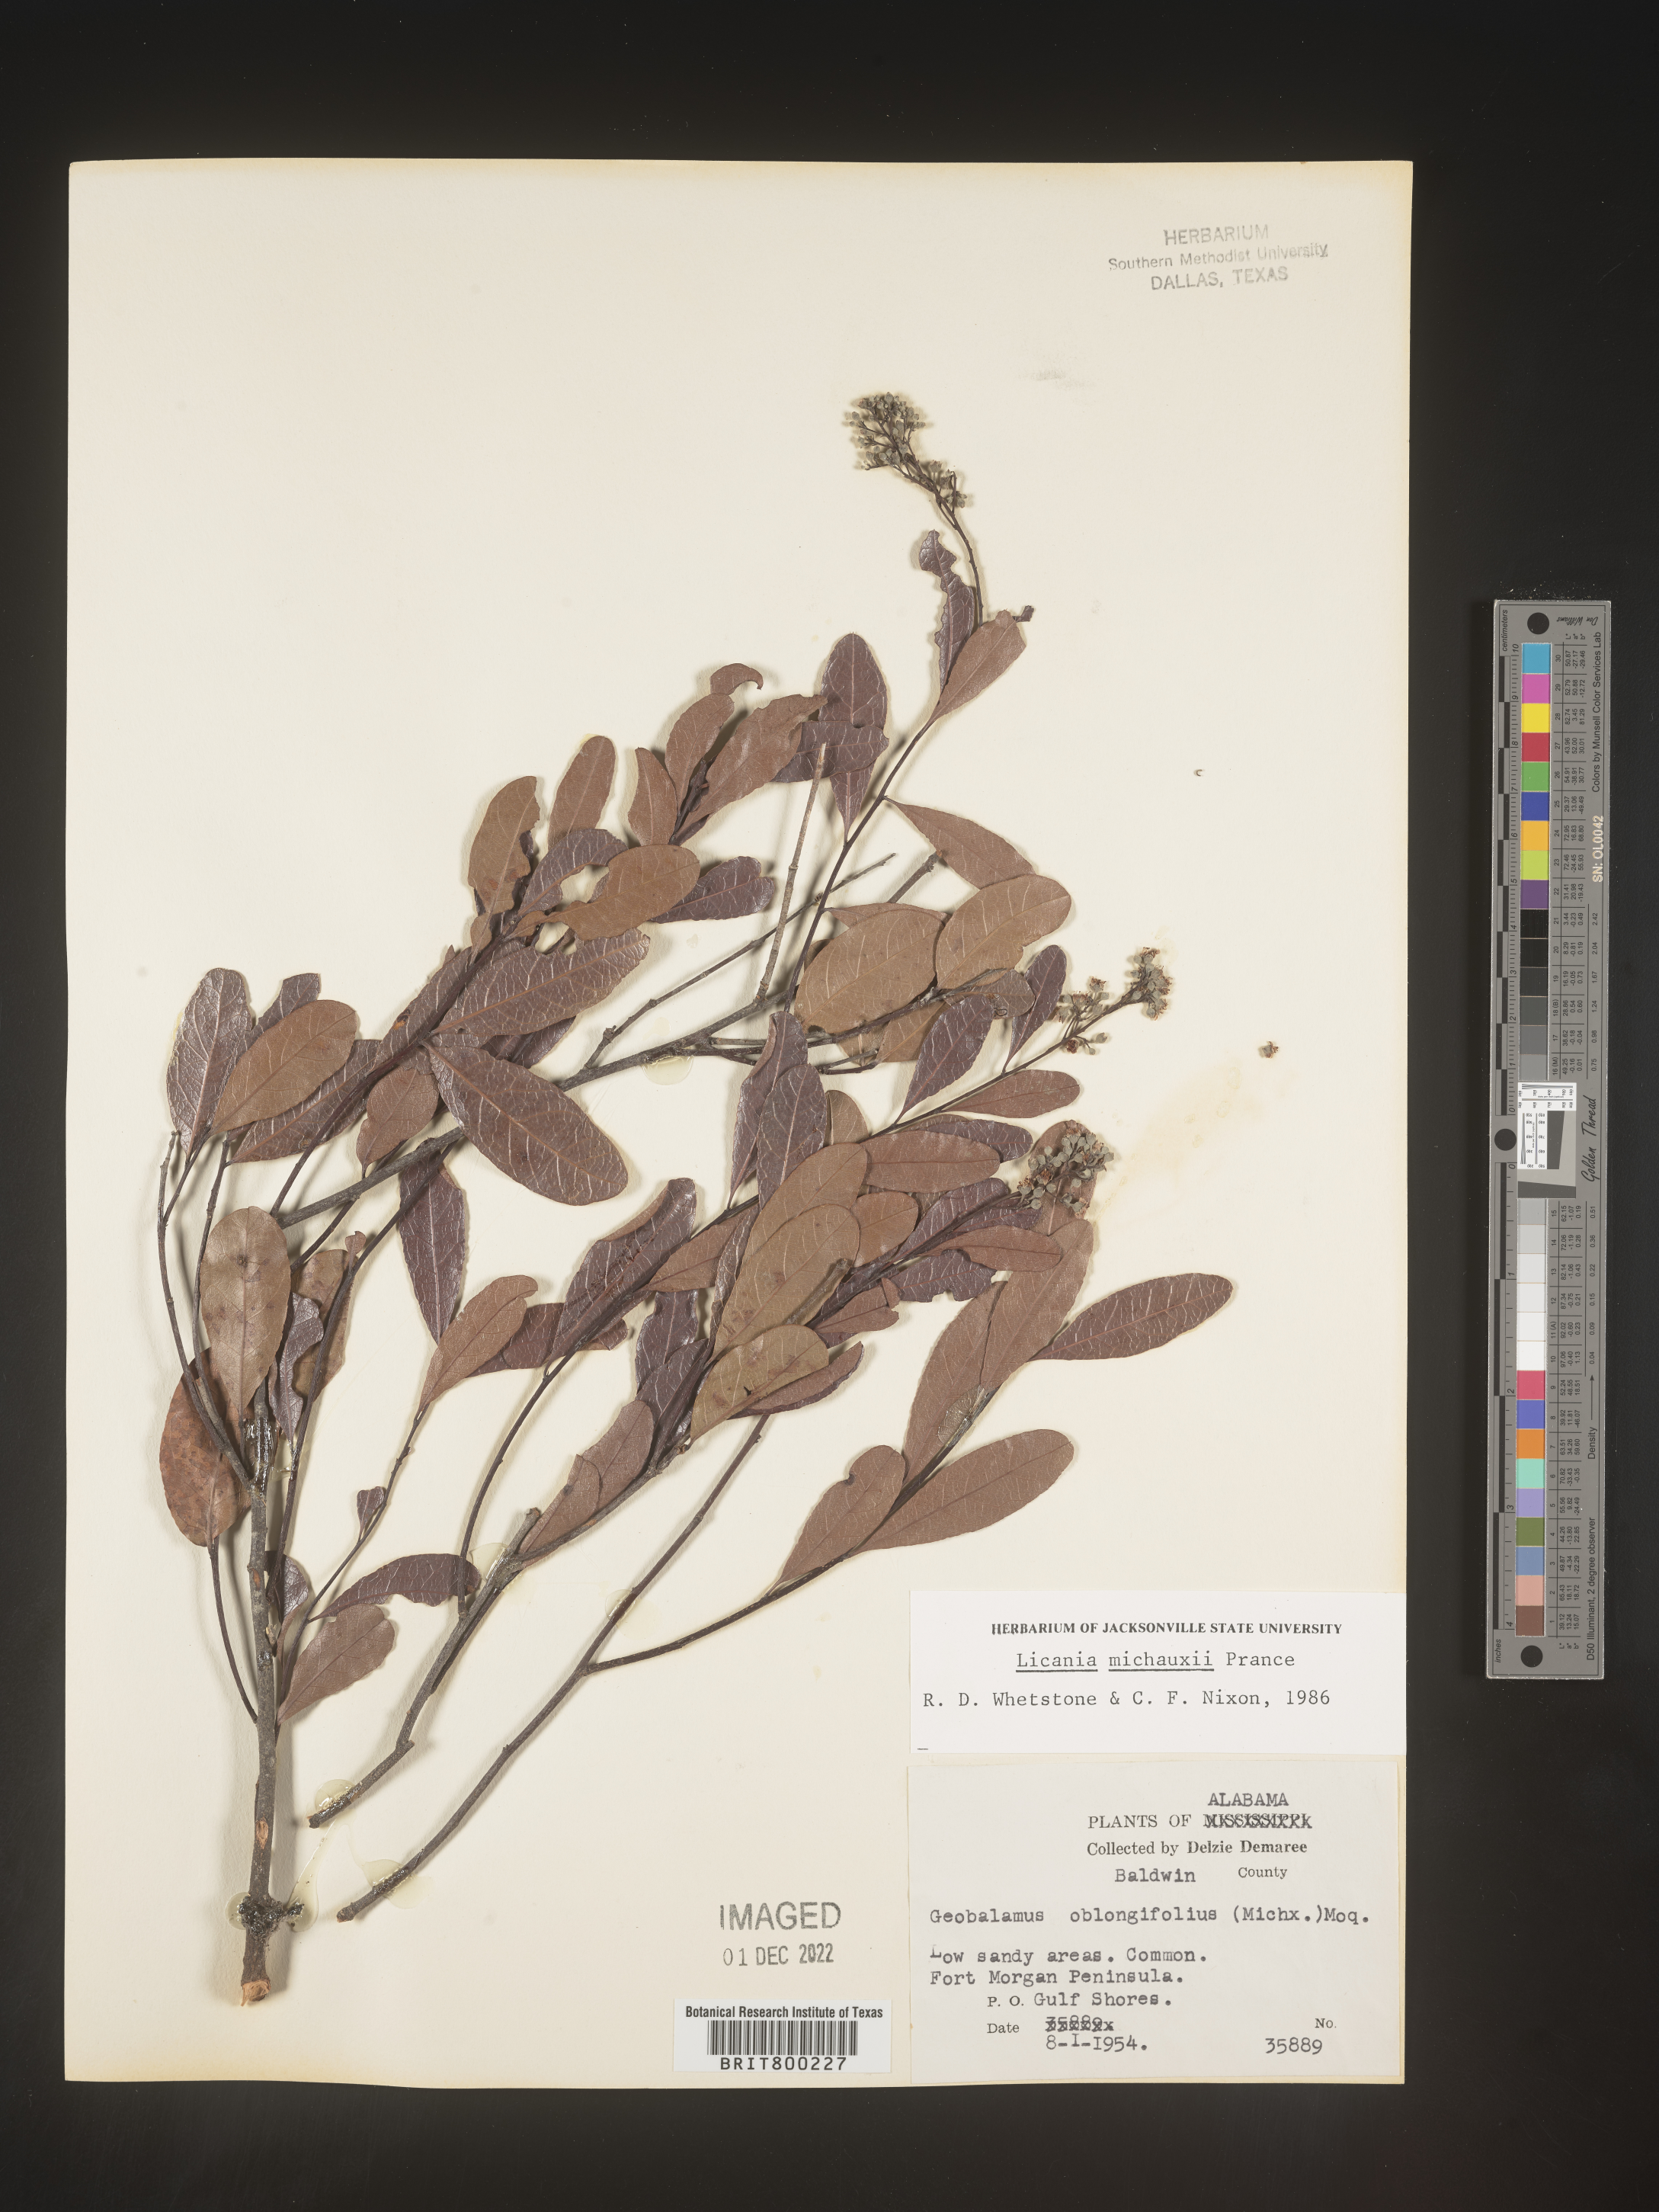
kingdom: Plantae
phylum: Tracheophyta
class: Magnoliopsida
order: Malpighiales
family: Chrysobalanaceae
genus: Geobalanus
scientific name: Geobalanus oblongifolius
